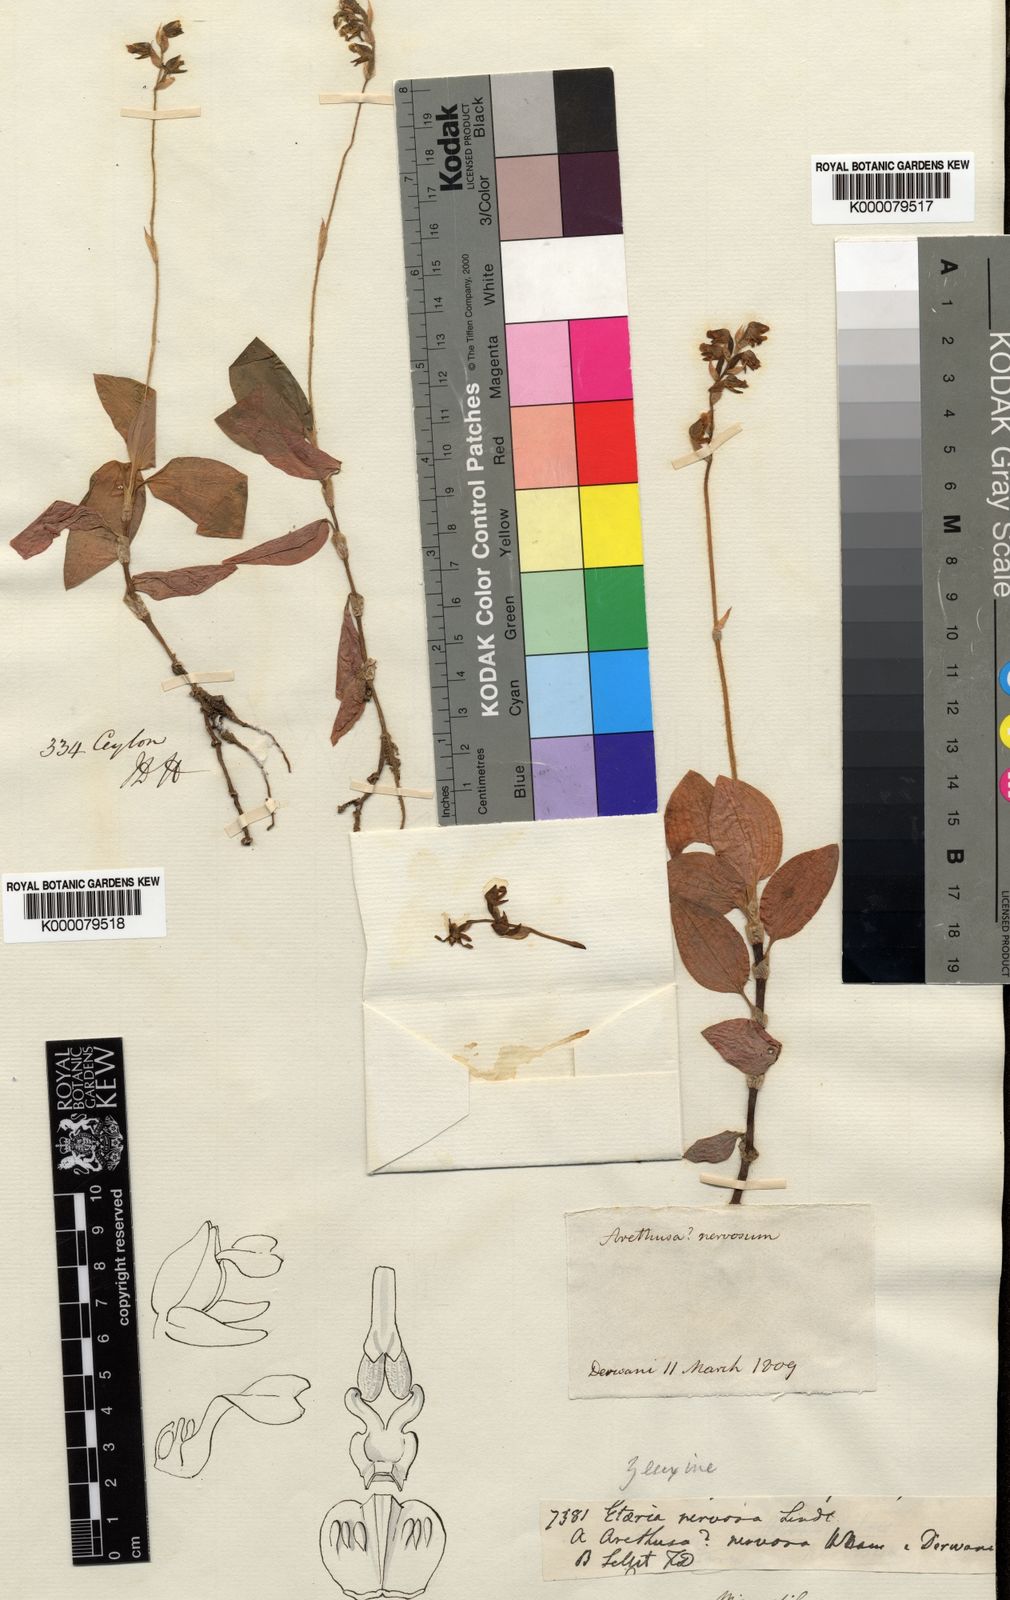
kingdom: Plantae
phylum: Tracheophyta
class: Liliopsida
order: Asparagales
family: Orchidaceae
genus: Zeuxine
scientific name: Zeuxine nervosa
